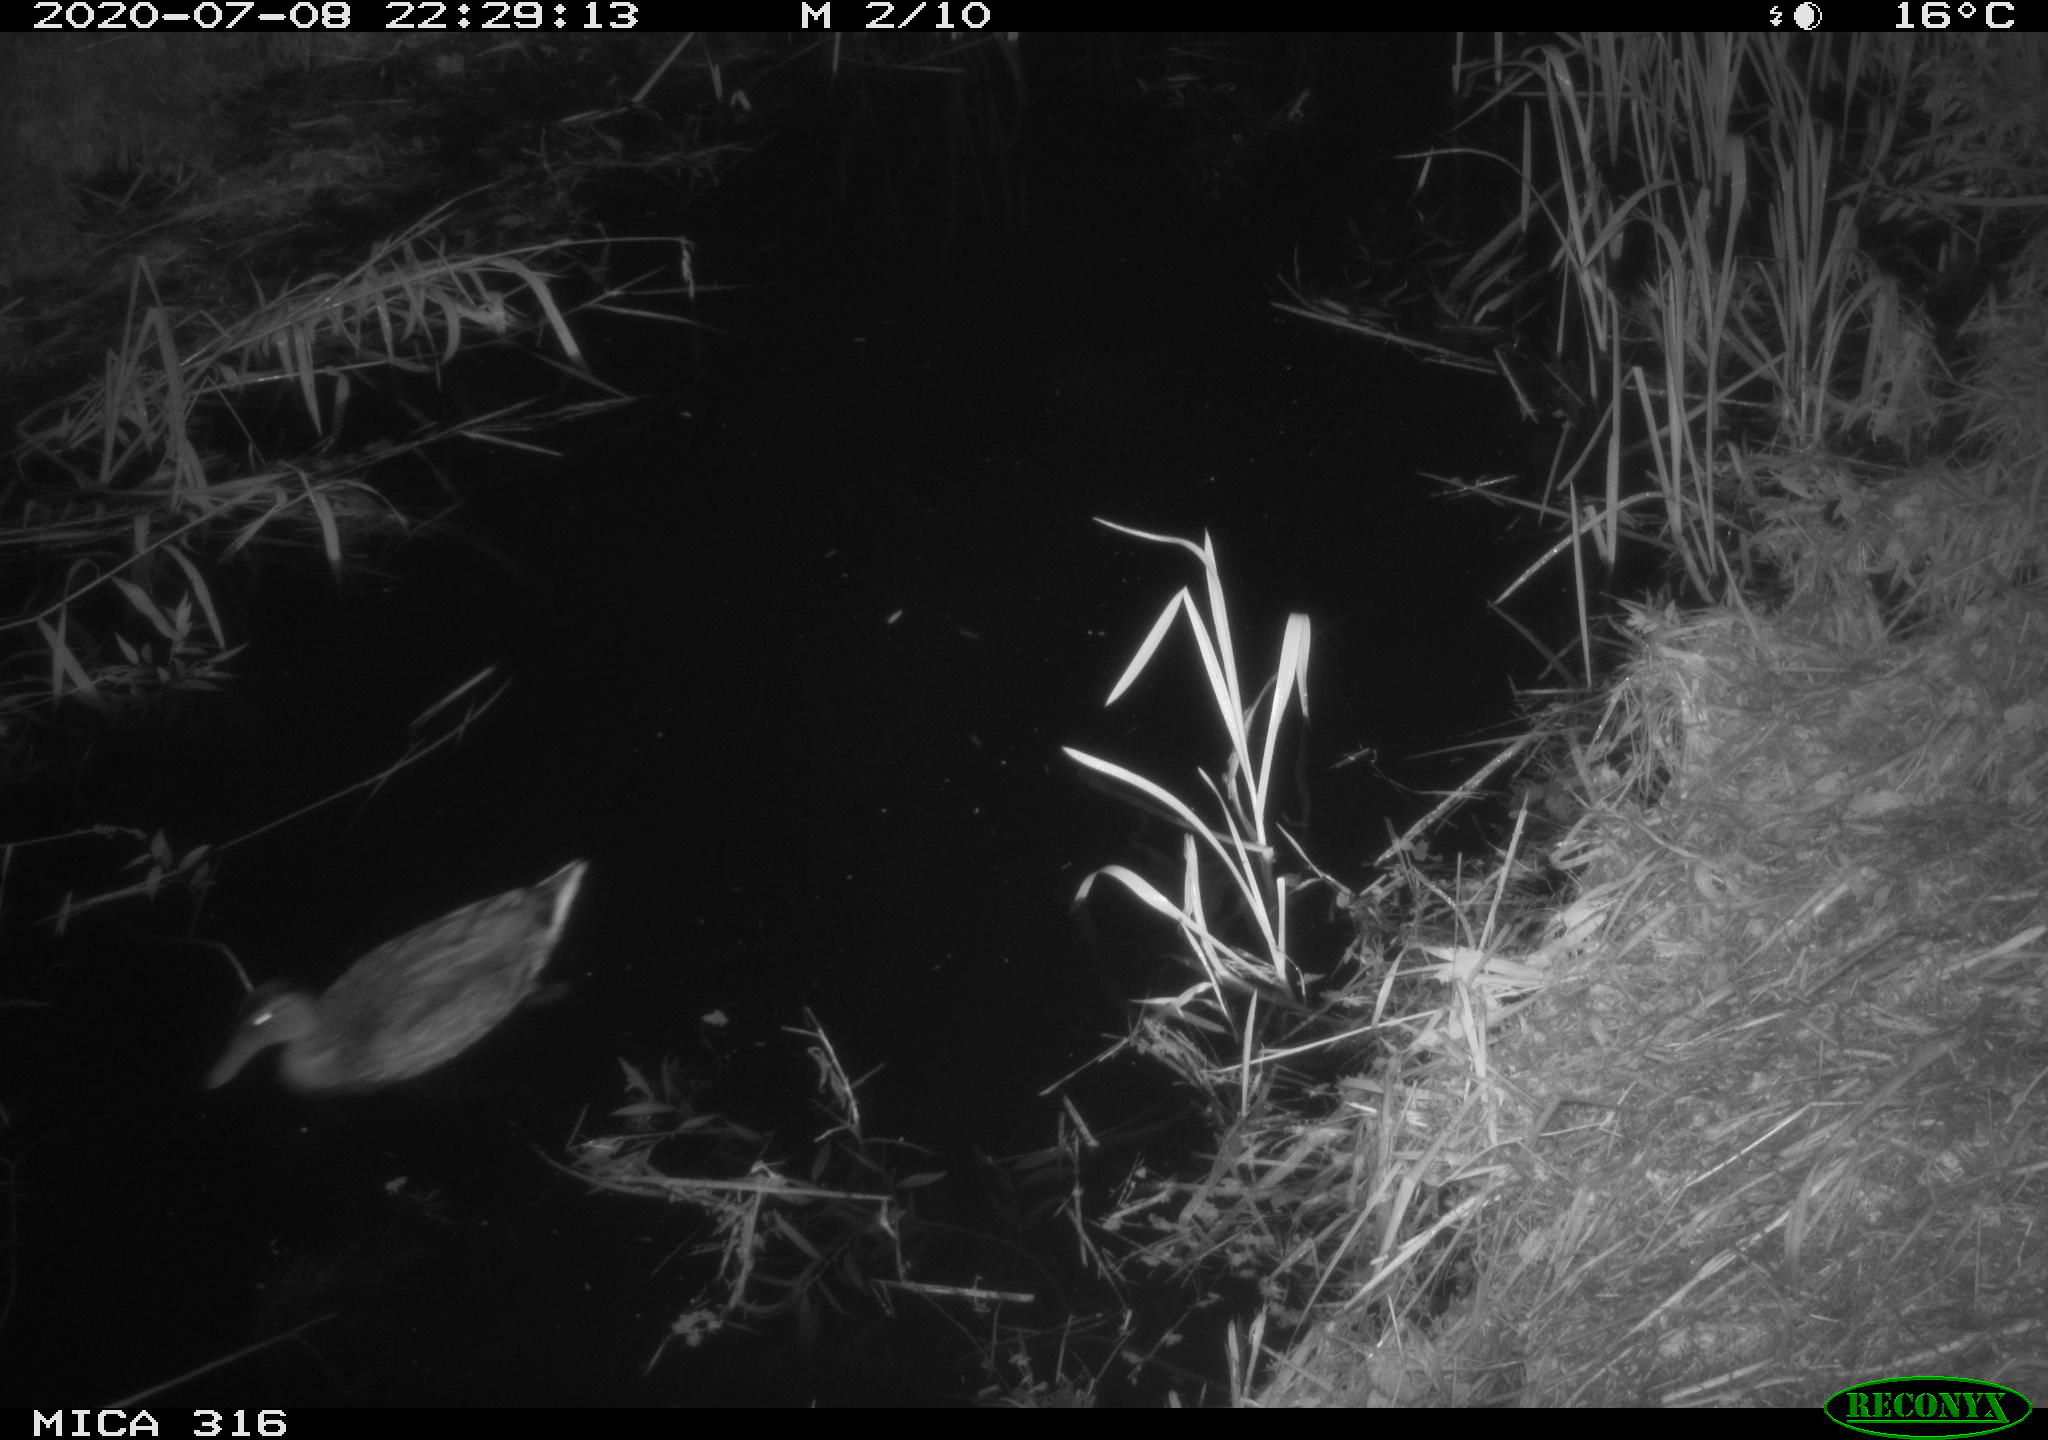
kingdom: Animalia
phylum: Chordata
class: Aves
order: Anseriformes
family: Anatidae
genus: Anas
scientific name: Anas platyrhynchos
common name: Mallard
